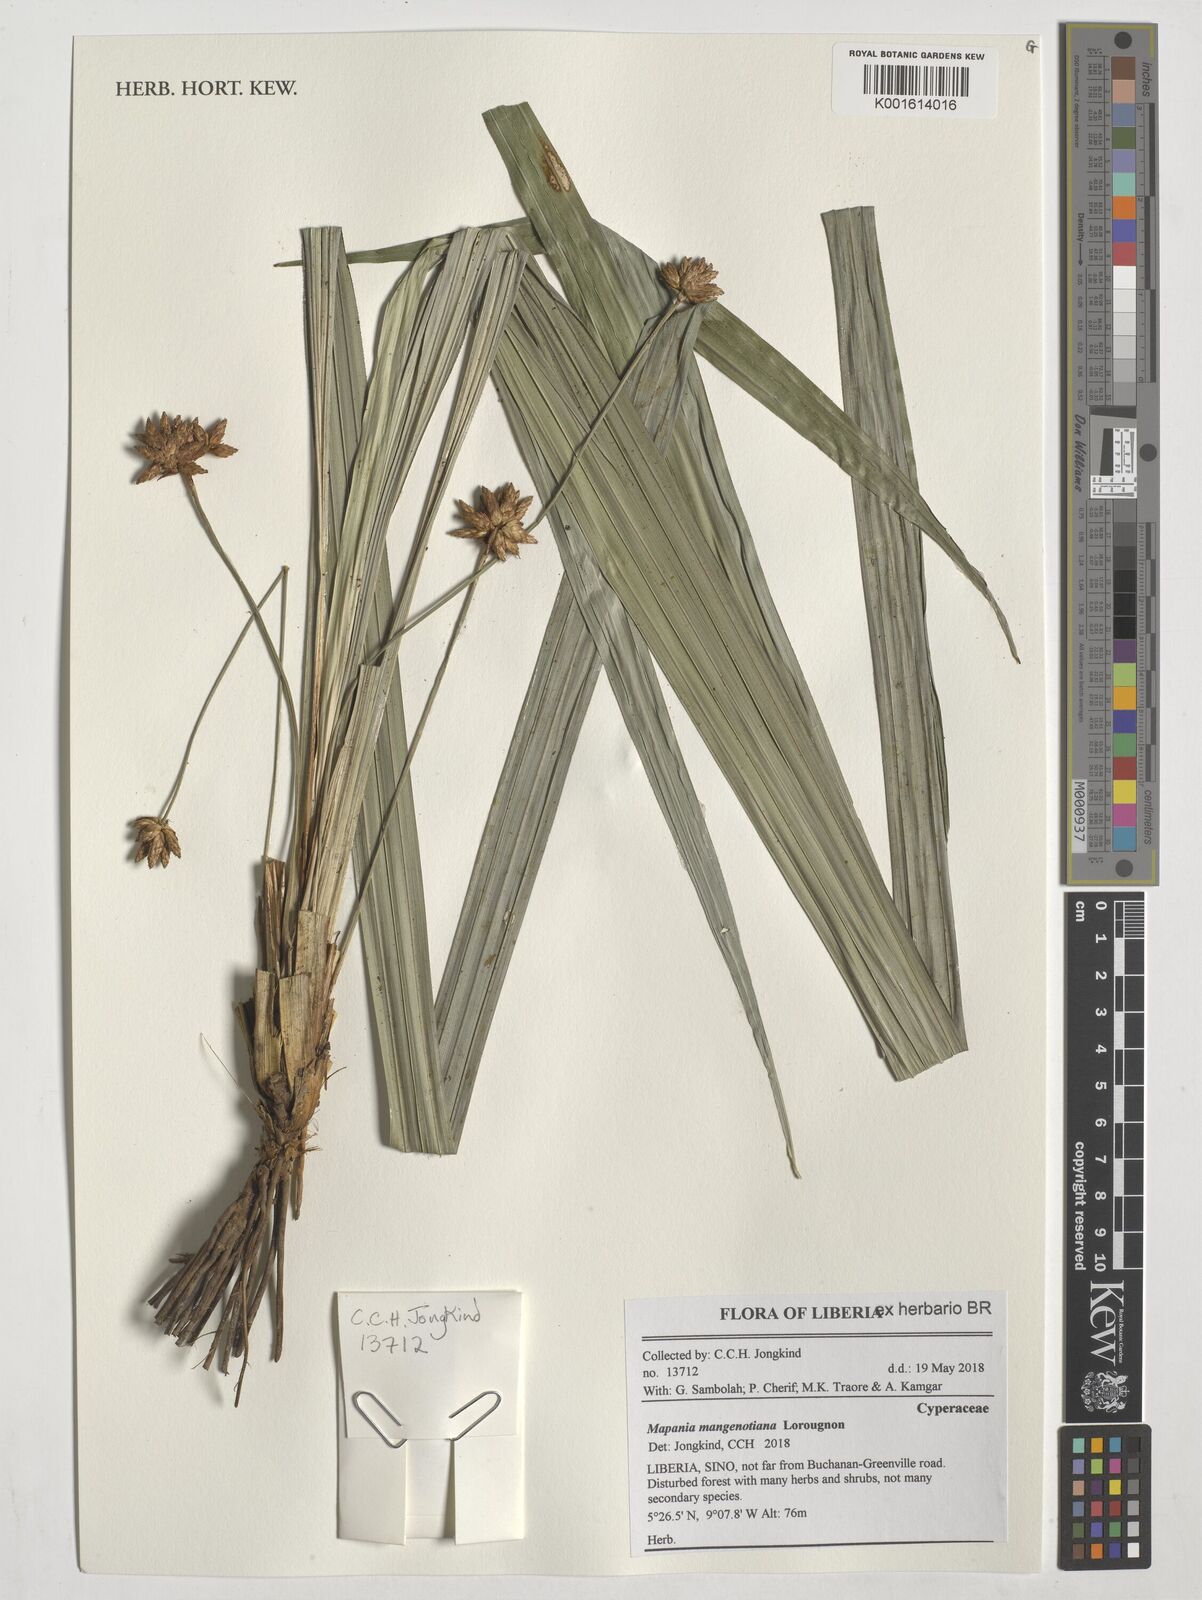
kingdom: Plantae
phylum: Tracheophyta
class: Liliopsida
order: Poales
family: Cyperaceae
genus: Mapania
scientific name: Mapania mangenotiana
